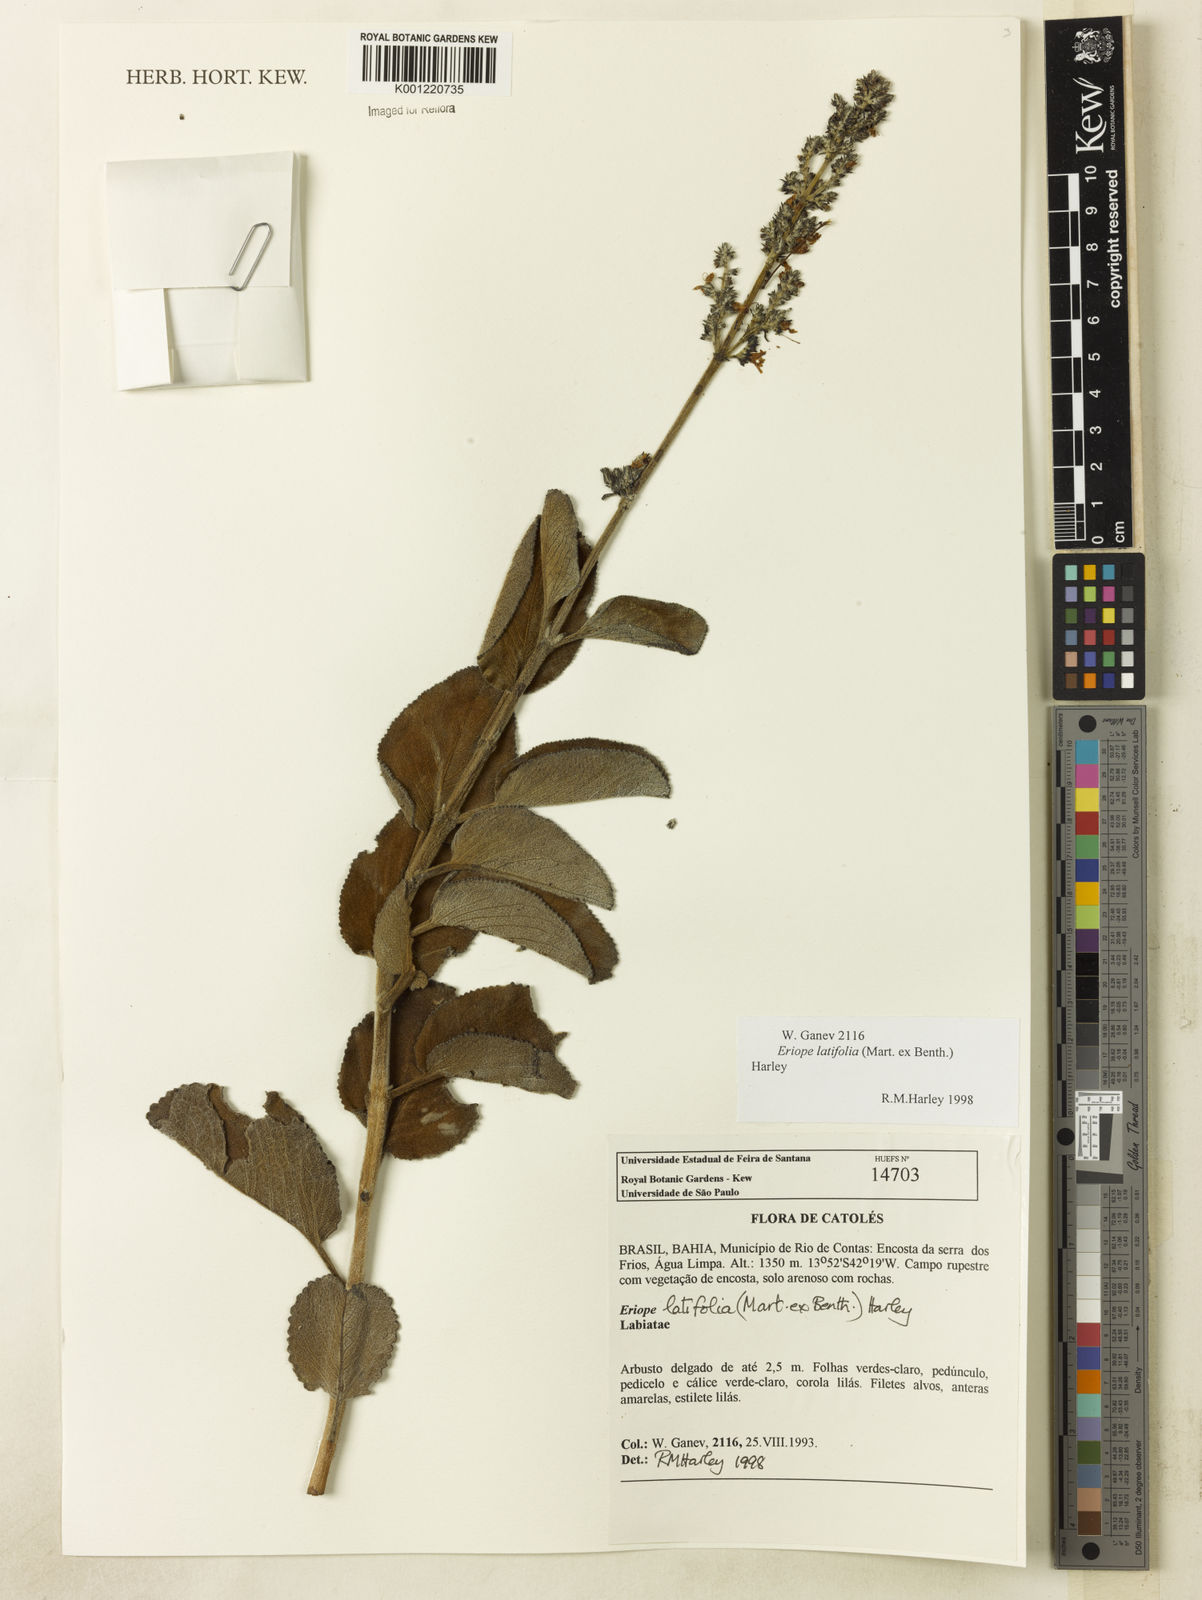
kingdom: Plantae
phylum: Tracheophyta
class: Magnoliopsida
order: Lamiales
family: Lamiaceae
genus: Eriope
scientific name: Eriope latifolia
